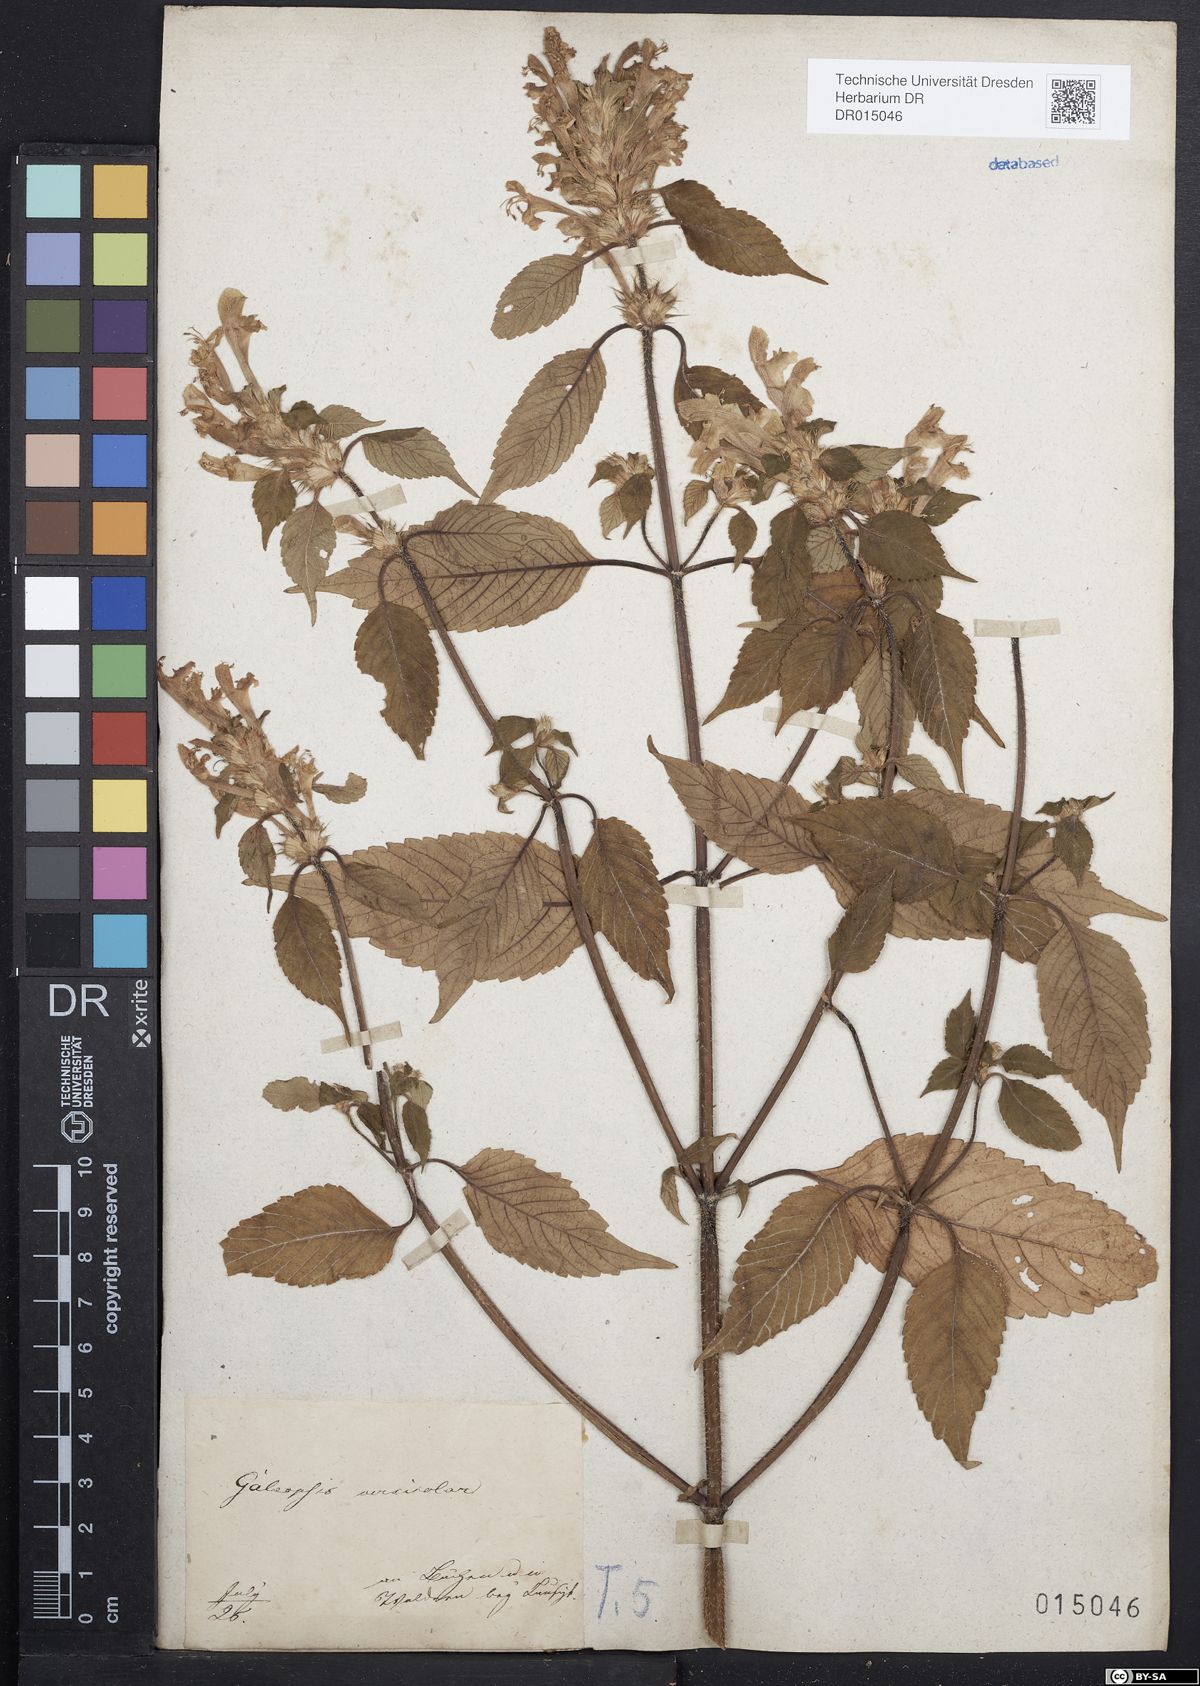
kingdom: Plantae
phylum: Tracheophyta
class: Magnoliopsida
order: Lamiales
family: Lamiaceae
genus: Galeopsis
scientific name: Galeopsis speciosa
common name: Large-flowered hemp-nettle
